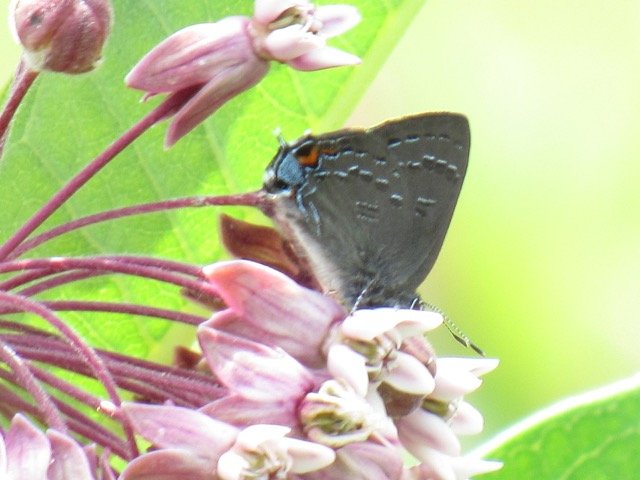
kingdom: Animalia
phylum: Arthropoda
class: Insecta
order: Lepidoptera
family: Lycaenidae
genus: Satyrium
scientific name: Satyrium calanus
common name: Banded Hairstreak
